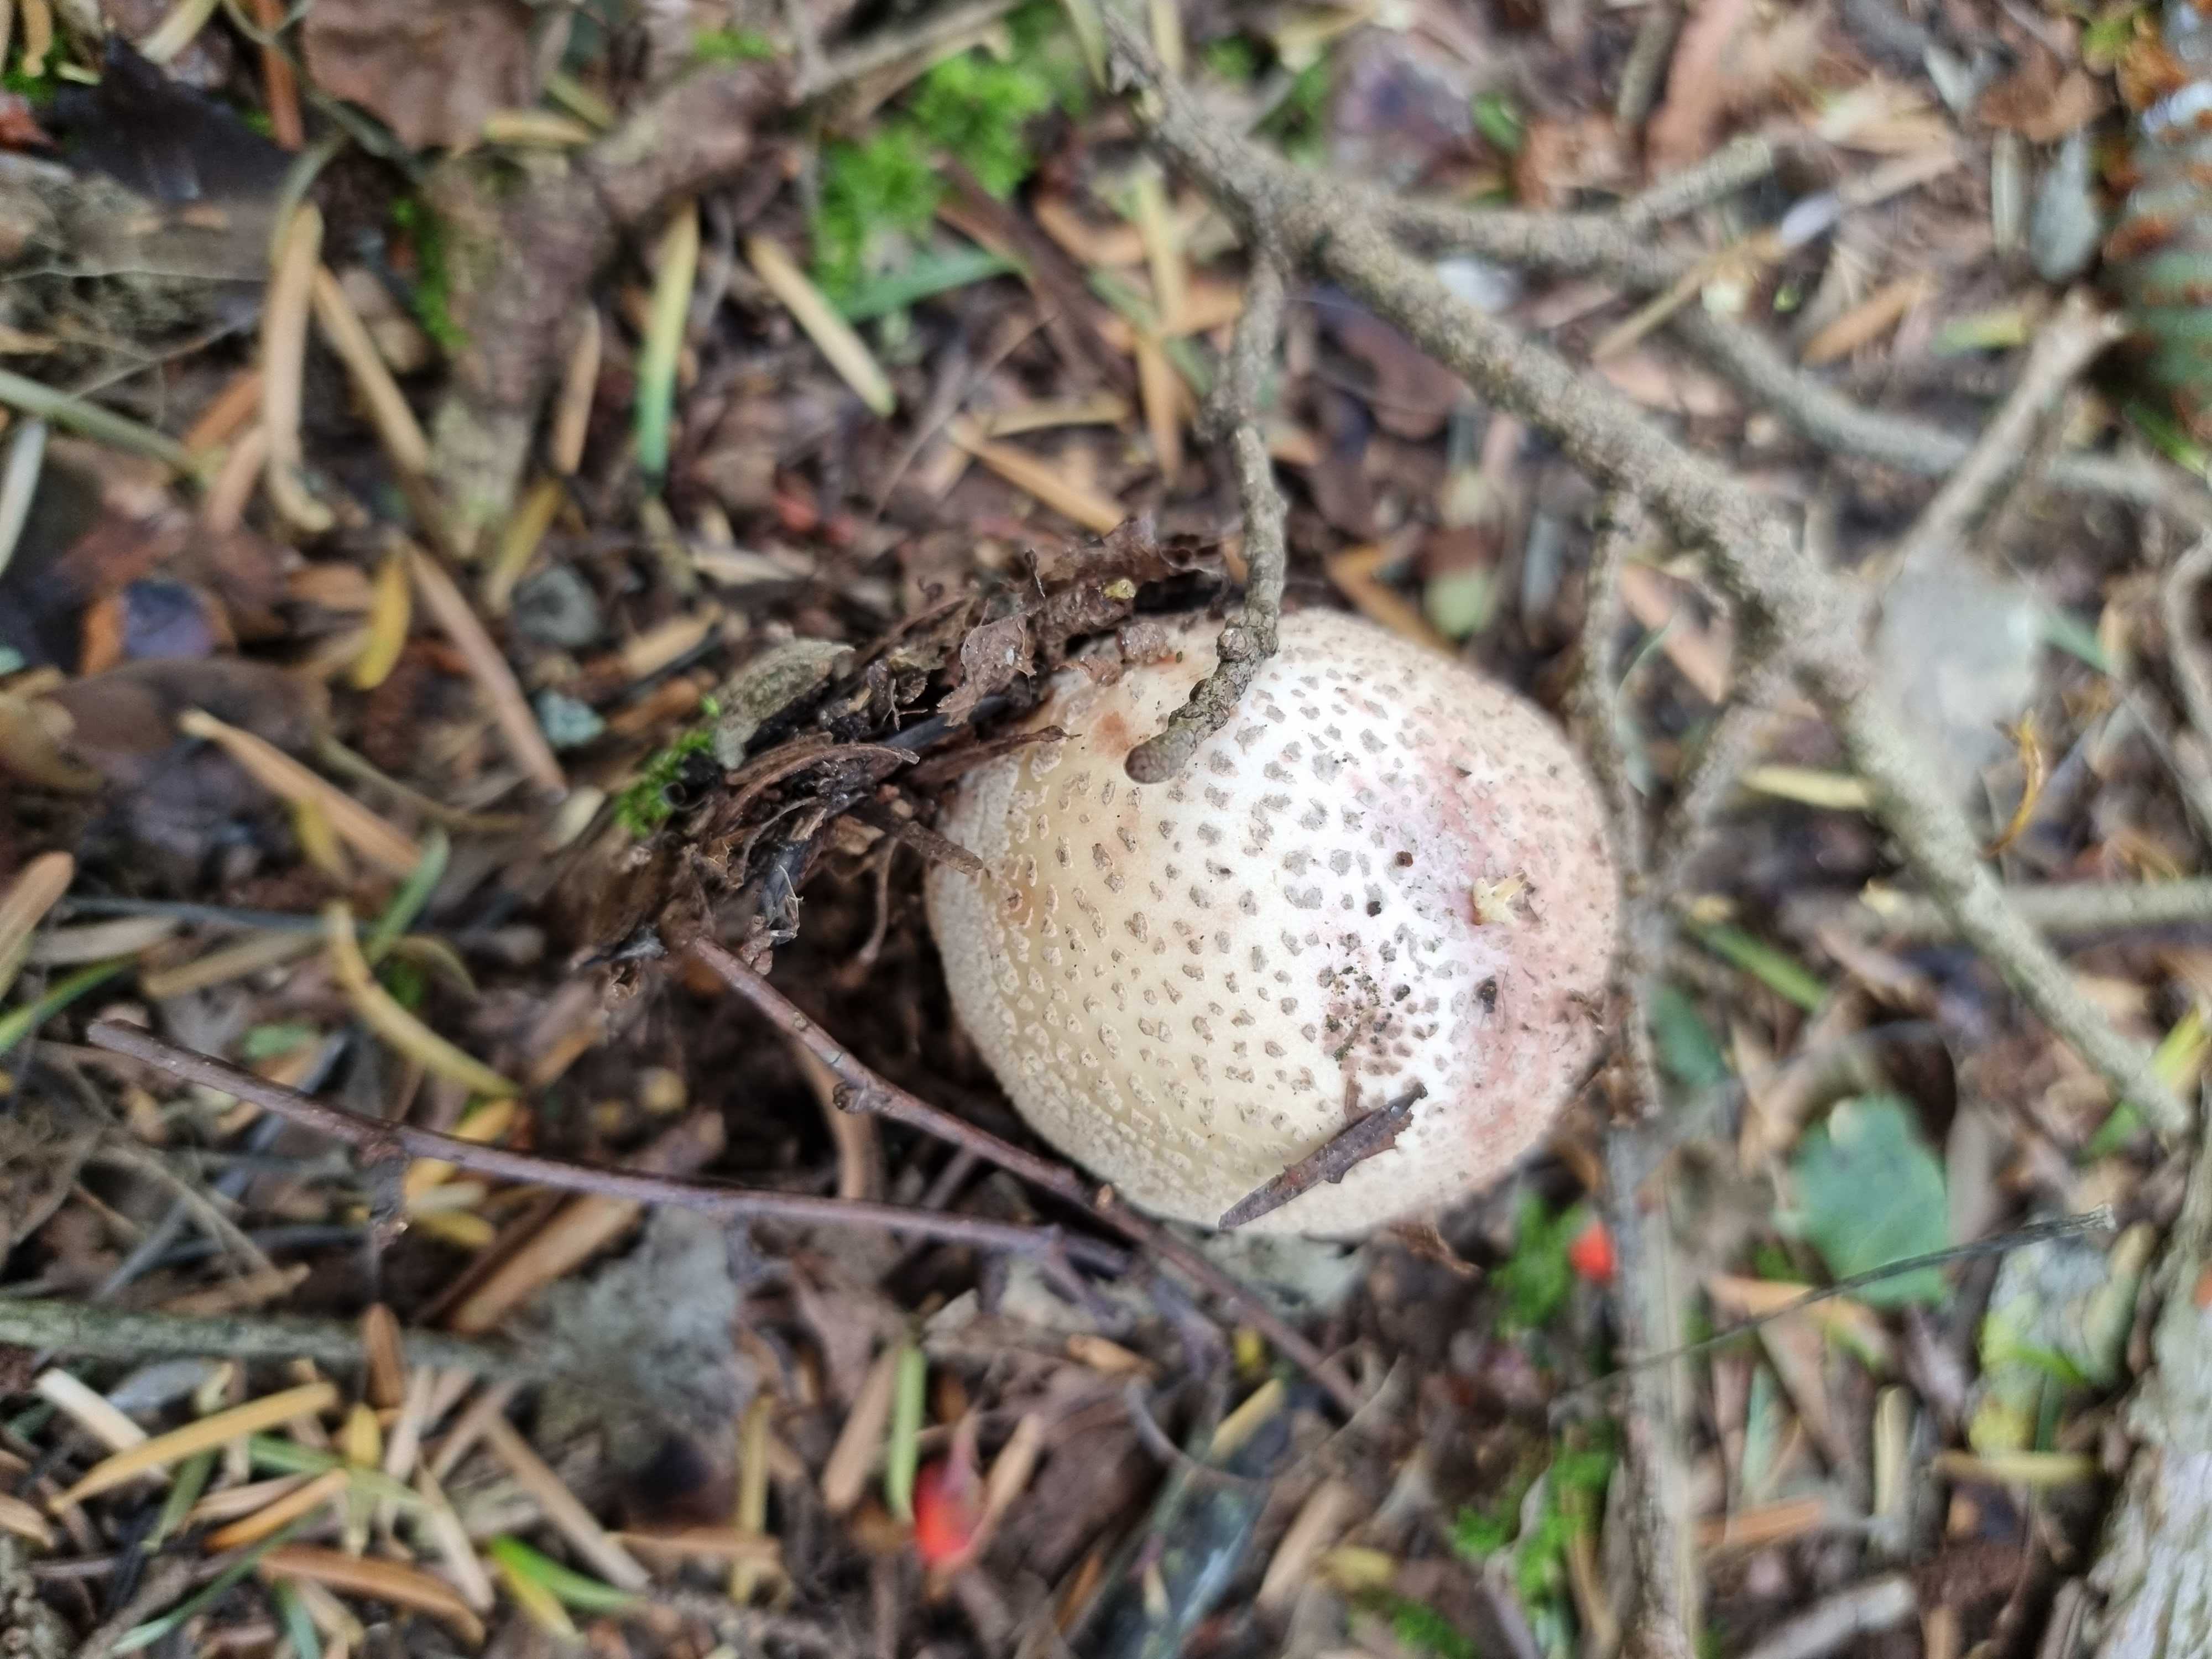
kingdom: Fungi
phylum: Basidiomycota
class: Agaricomycetes
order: Agaricales
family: Amanitaceae
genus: Amanita
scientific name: Amanita rubescens
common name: rødmende fluesvamp
